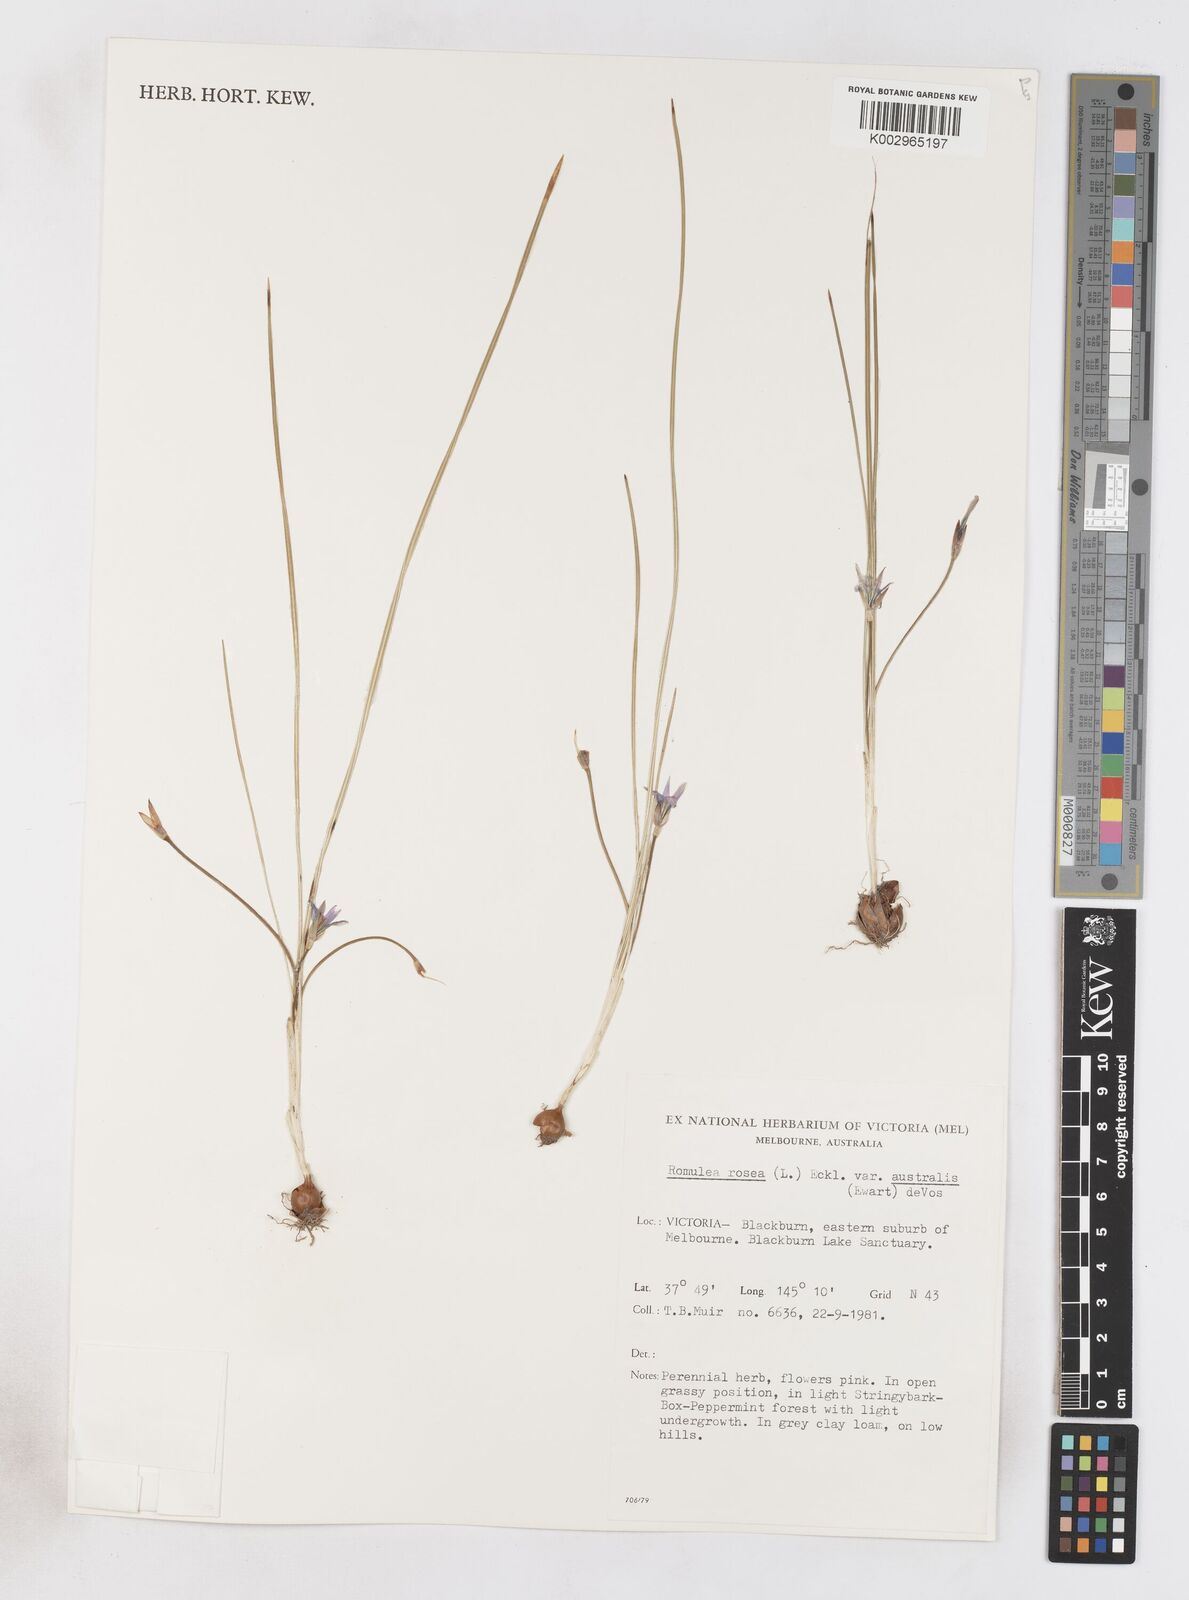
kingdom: Plantae
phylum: Tracheophyta
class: Liliopsida
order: Asparagales
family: Iridaceae
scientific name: Iridaceae
